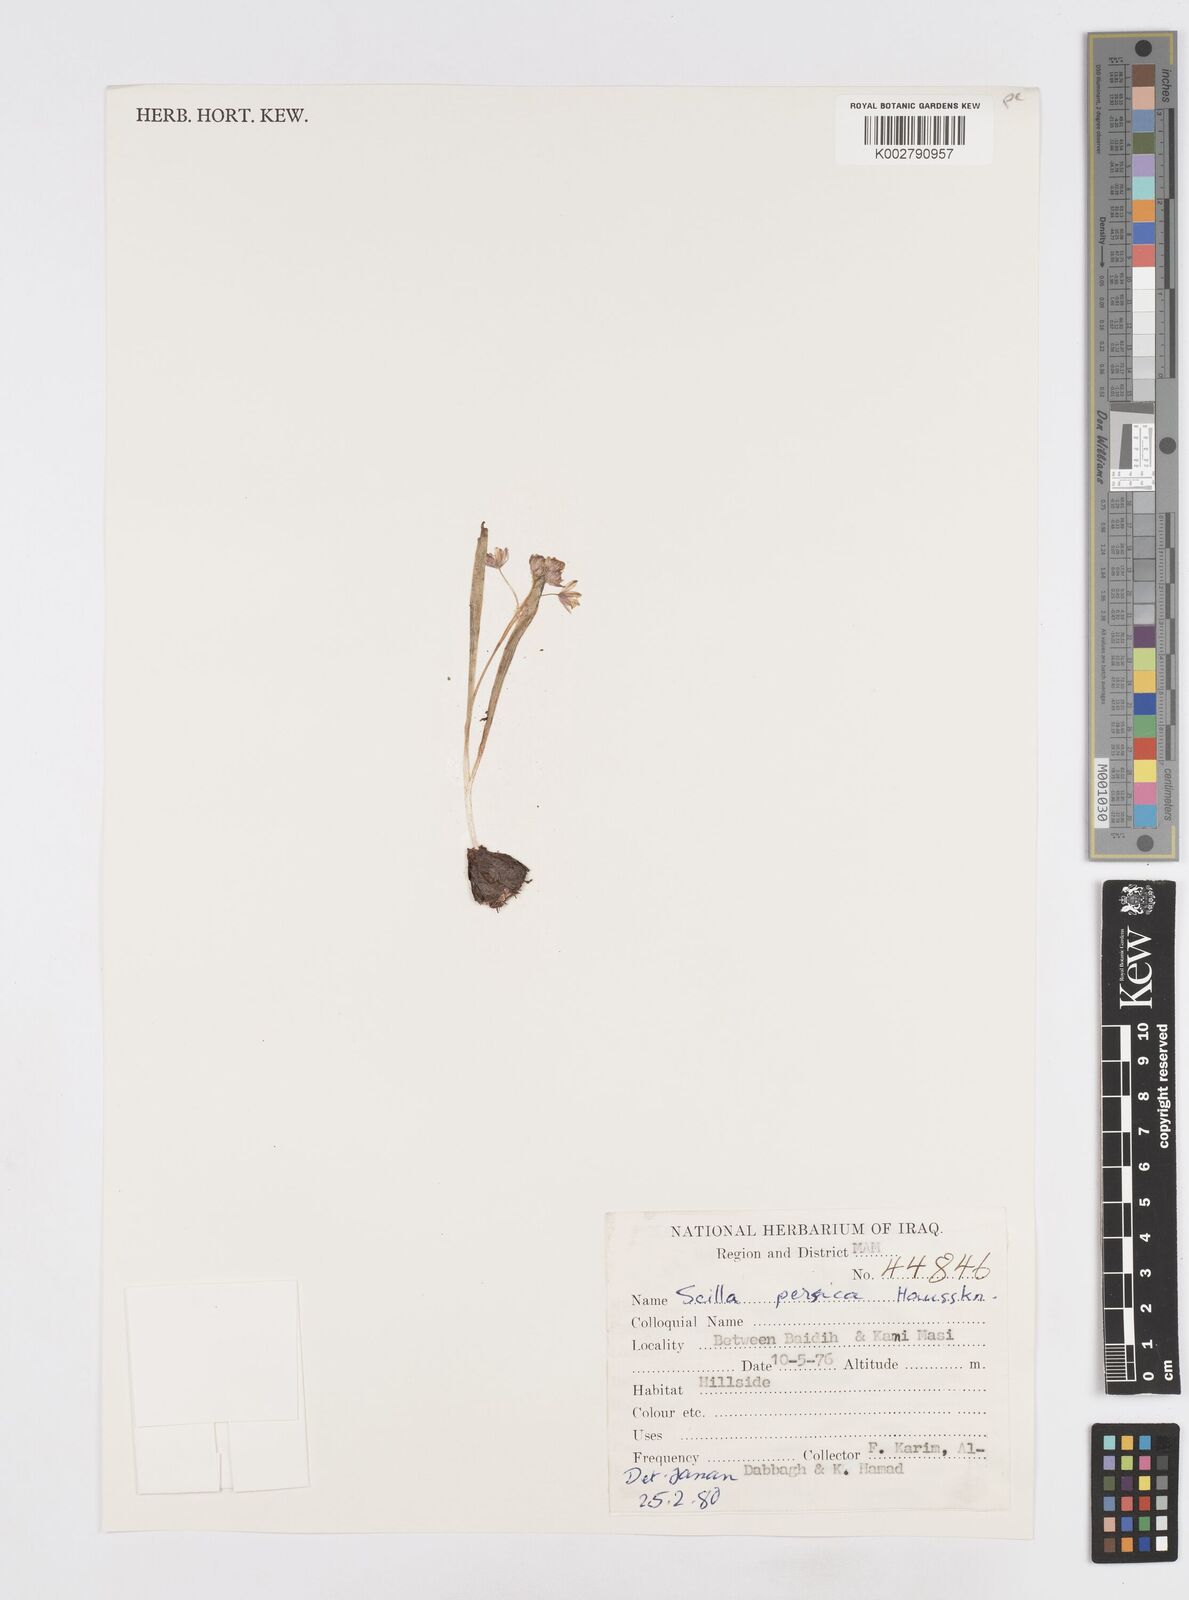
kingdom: Plantae
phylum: Tracheophyta
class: Liliopsida
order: Asparagales
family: Asparagaceae
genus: Zagrosia
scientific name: Zagrosia persica
